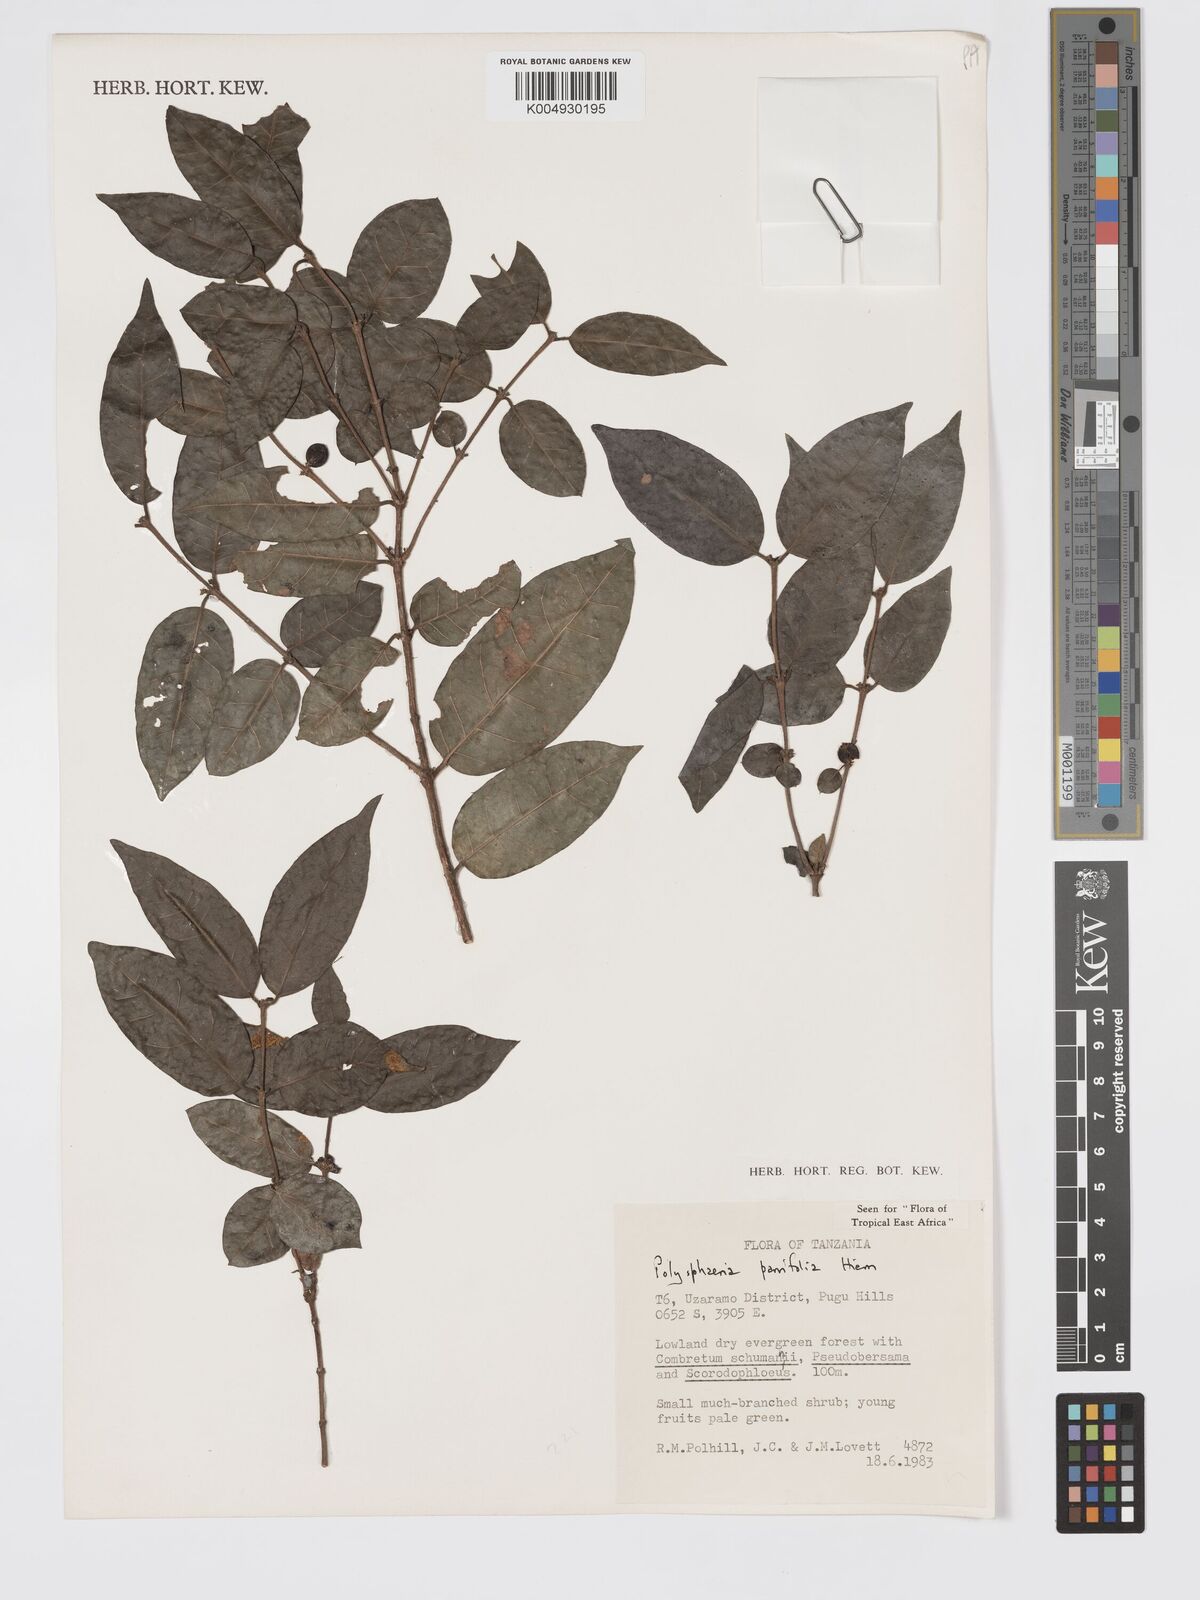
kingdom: Plantae
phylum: Tracheophyta
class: Magnoliopsida
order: Gentianales
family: Rubiaceae
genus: Polysphaeria
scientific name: Polysphaeria parvifolia
